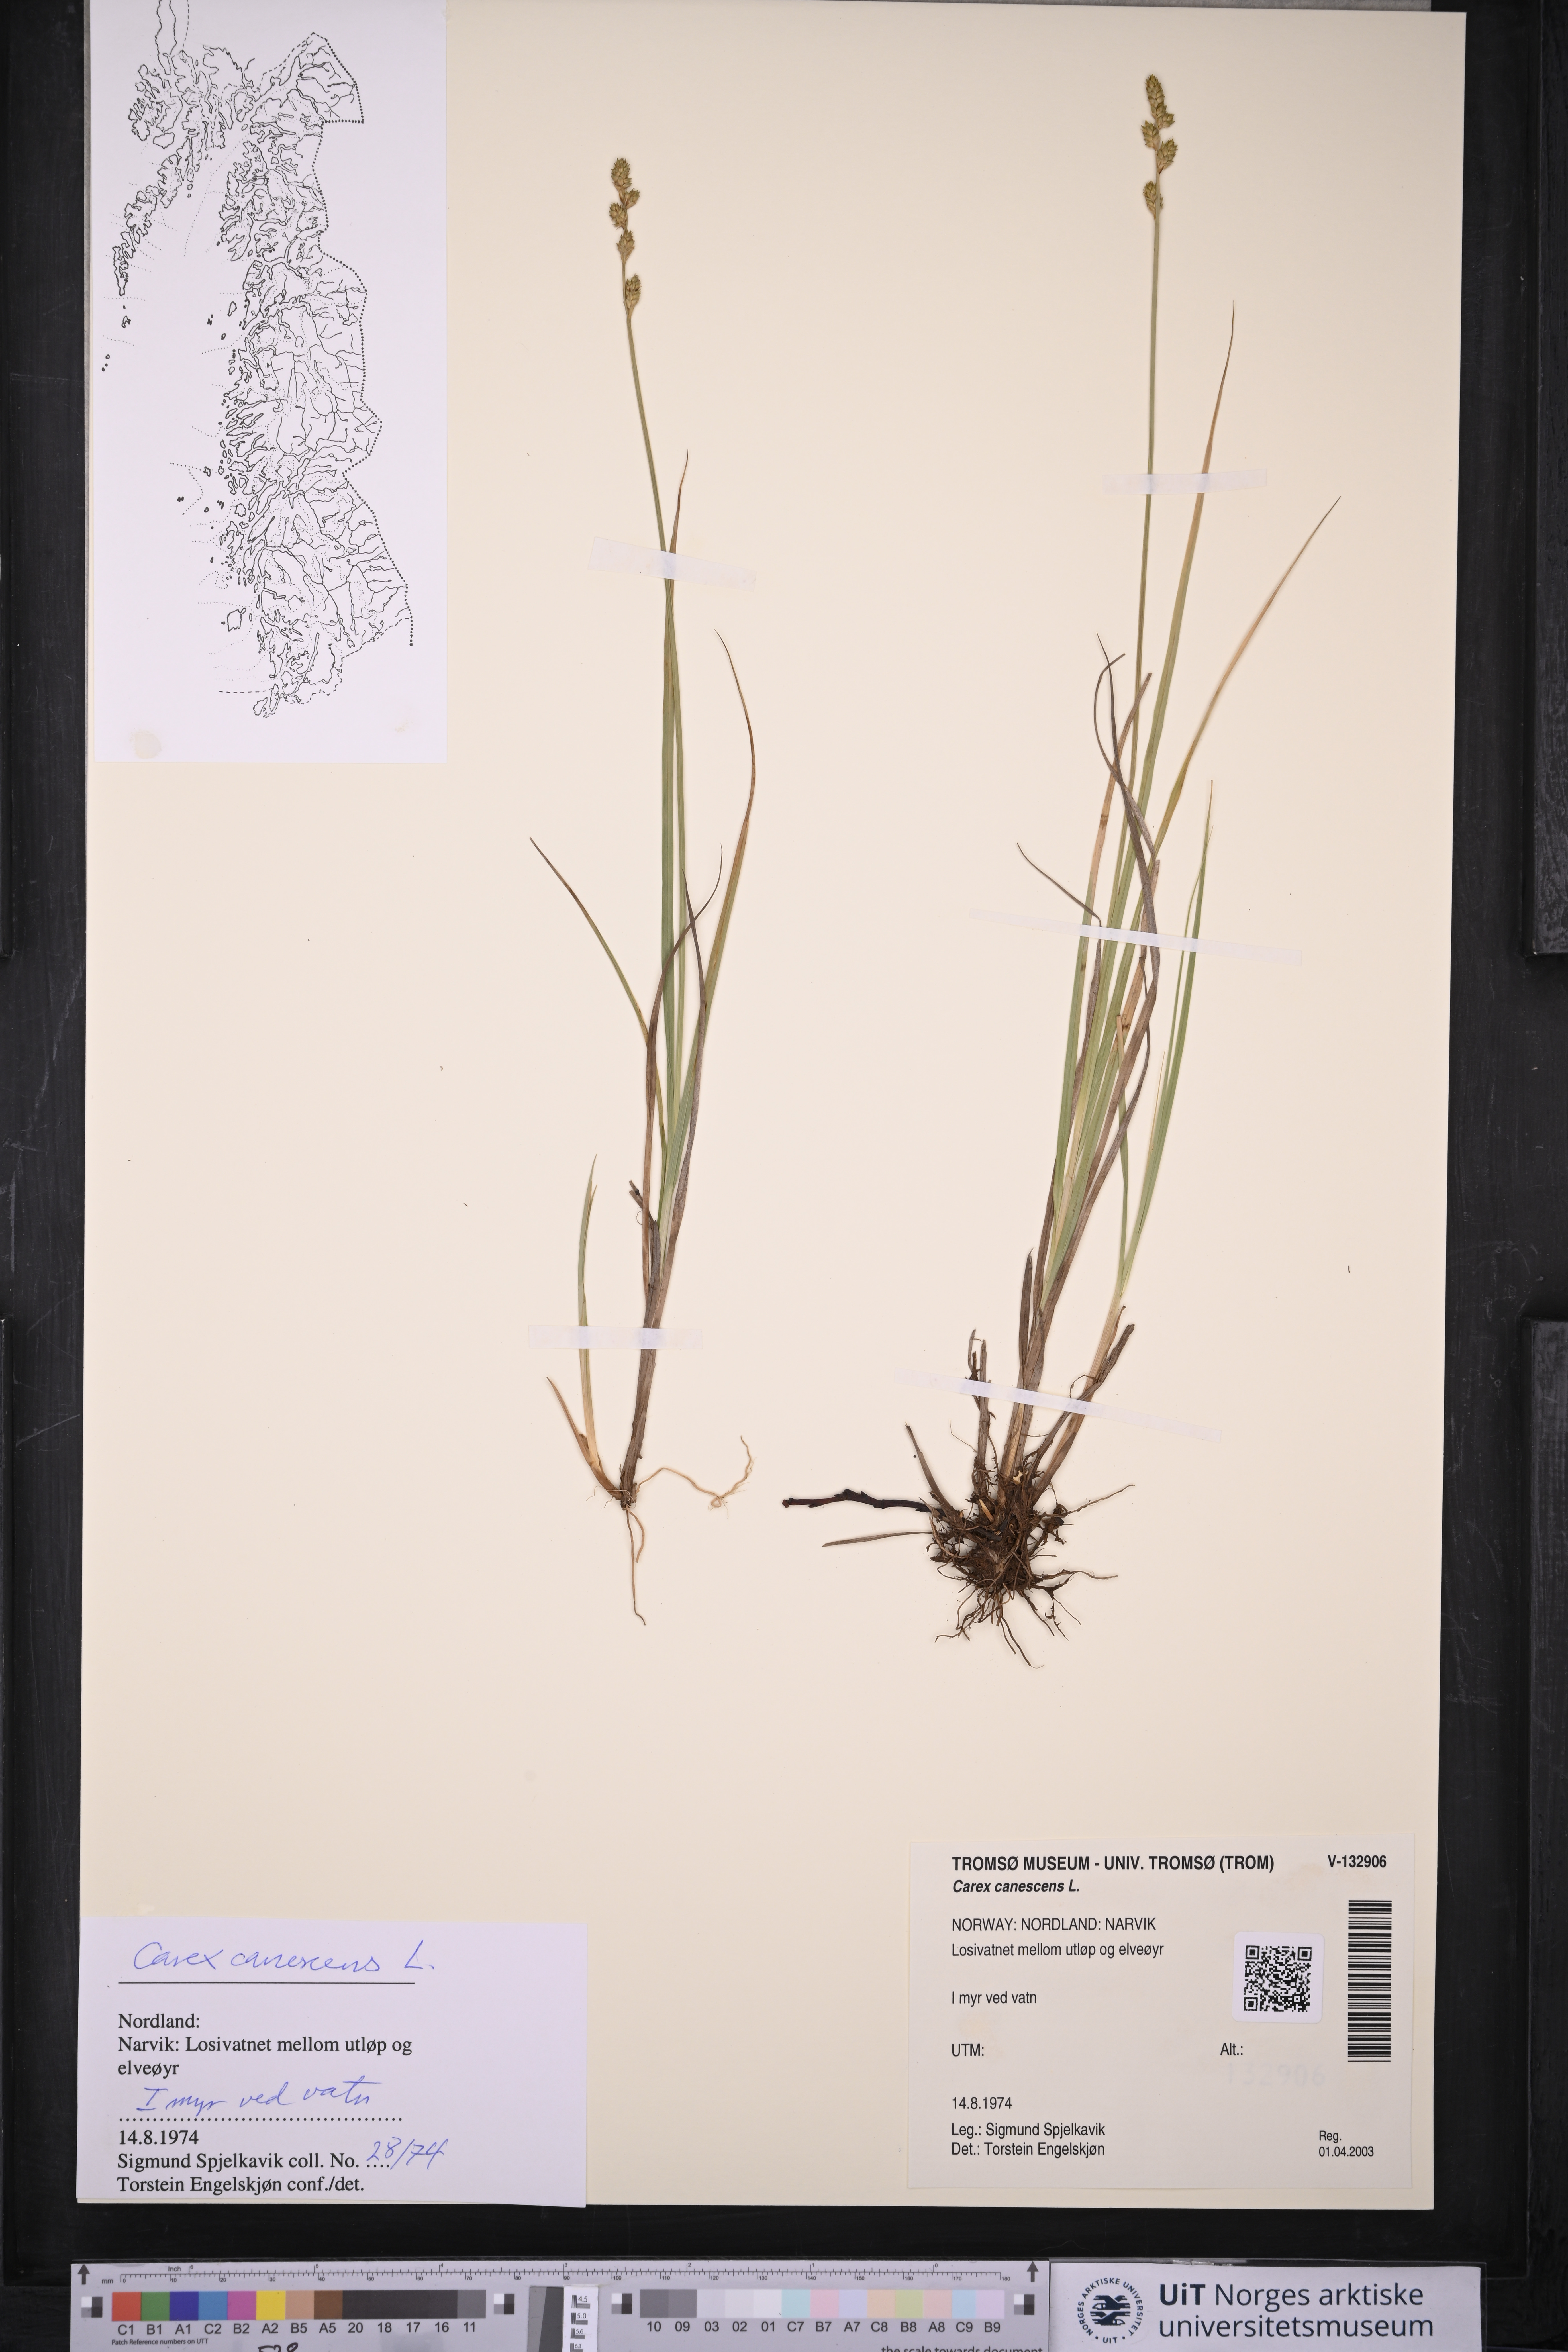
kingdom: Plantae
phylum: Tracheophyta
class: Liliopsida
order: Poales
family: Cyperaceae
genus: Carex
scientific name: Carex canescens
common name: White sedge
